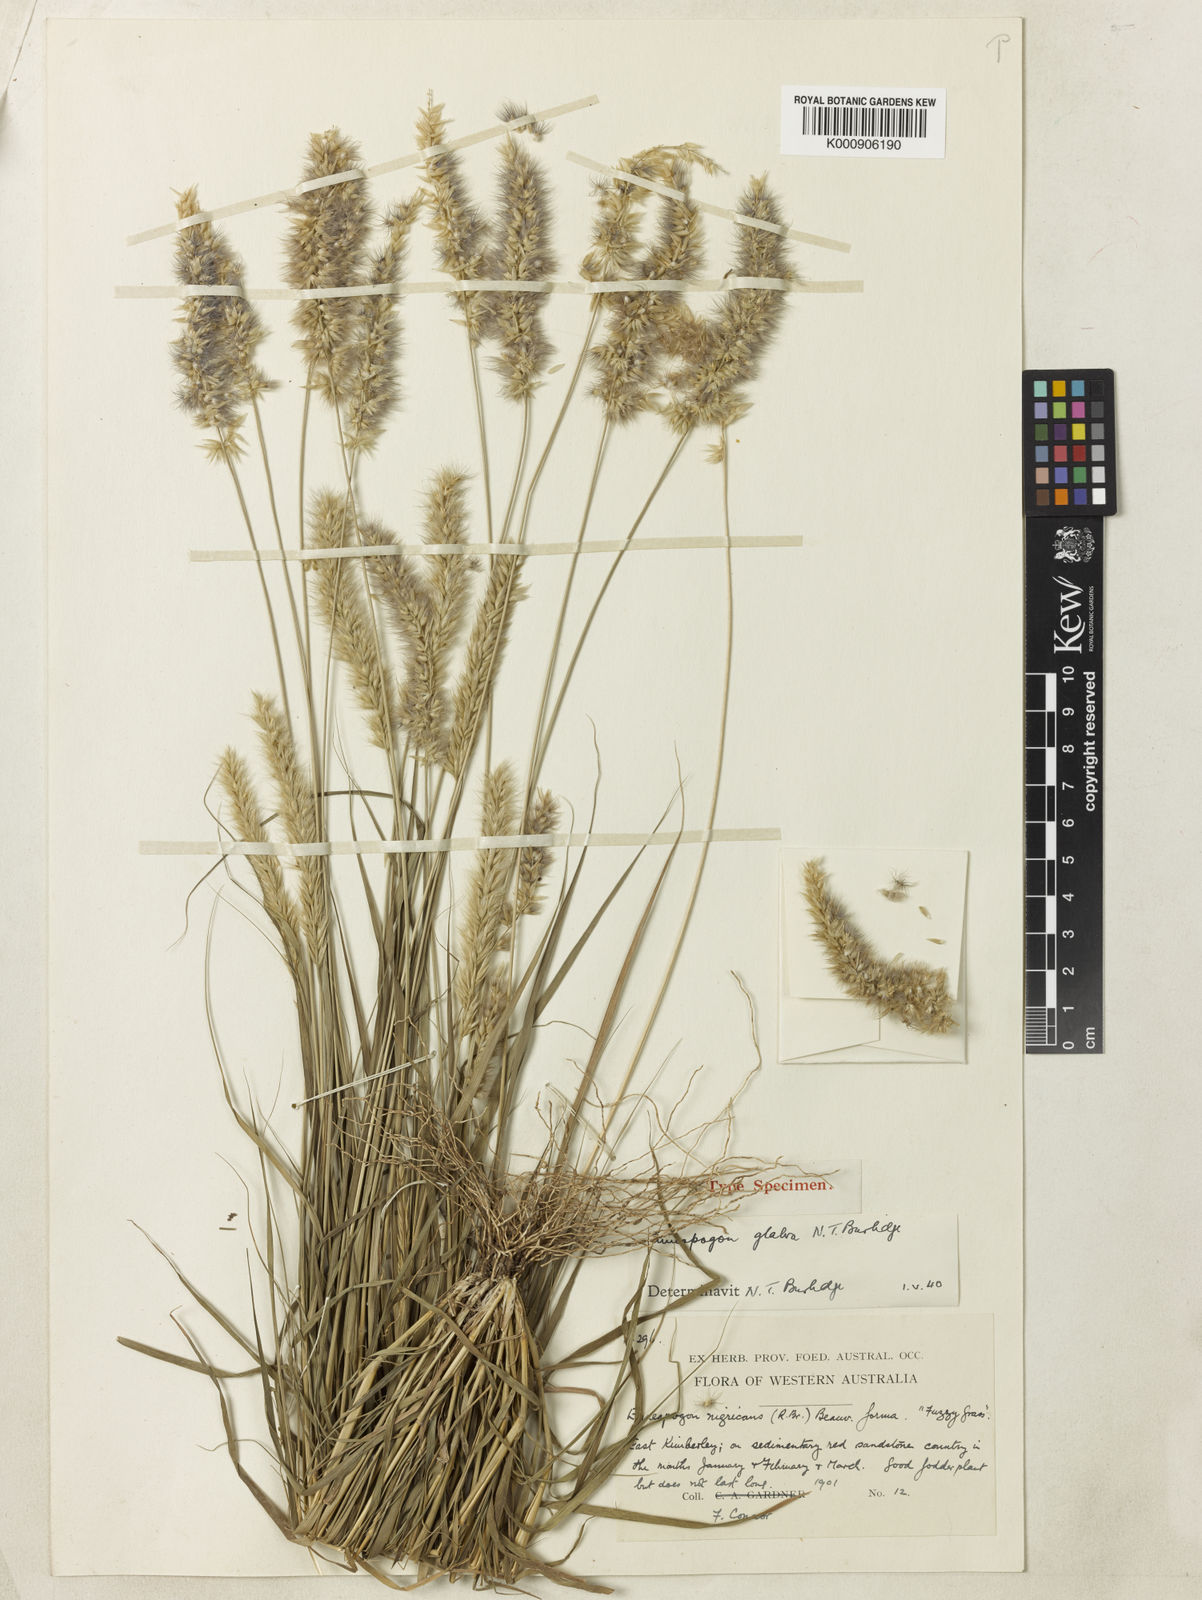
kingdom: Plantae
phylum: Tracheophyta
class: Liliopsida
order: Poales
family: Poaceae
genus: Enneapogon
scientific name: Enneapogon purpurascens
